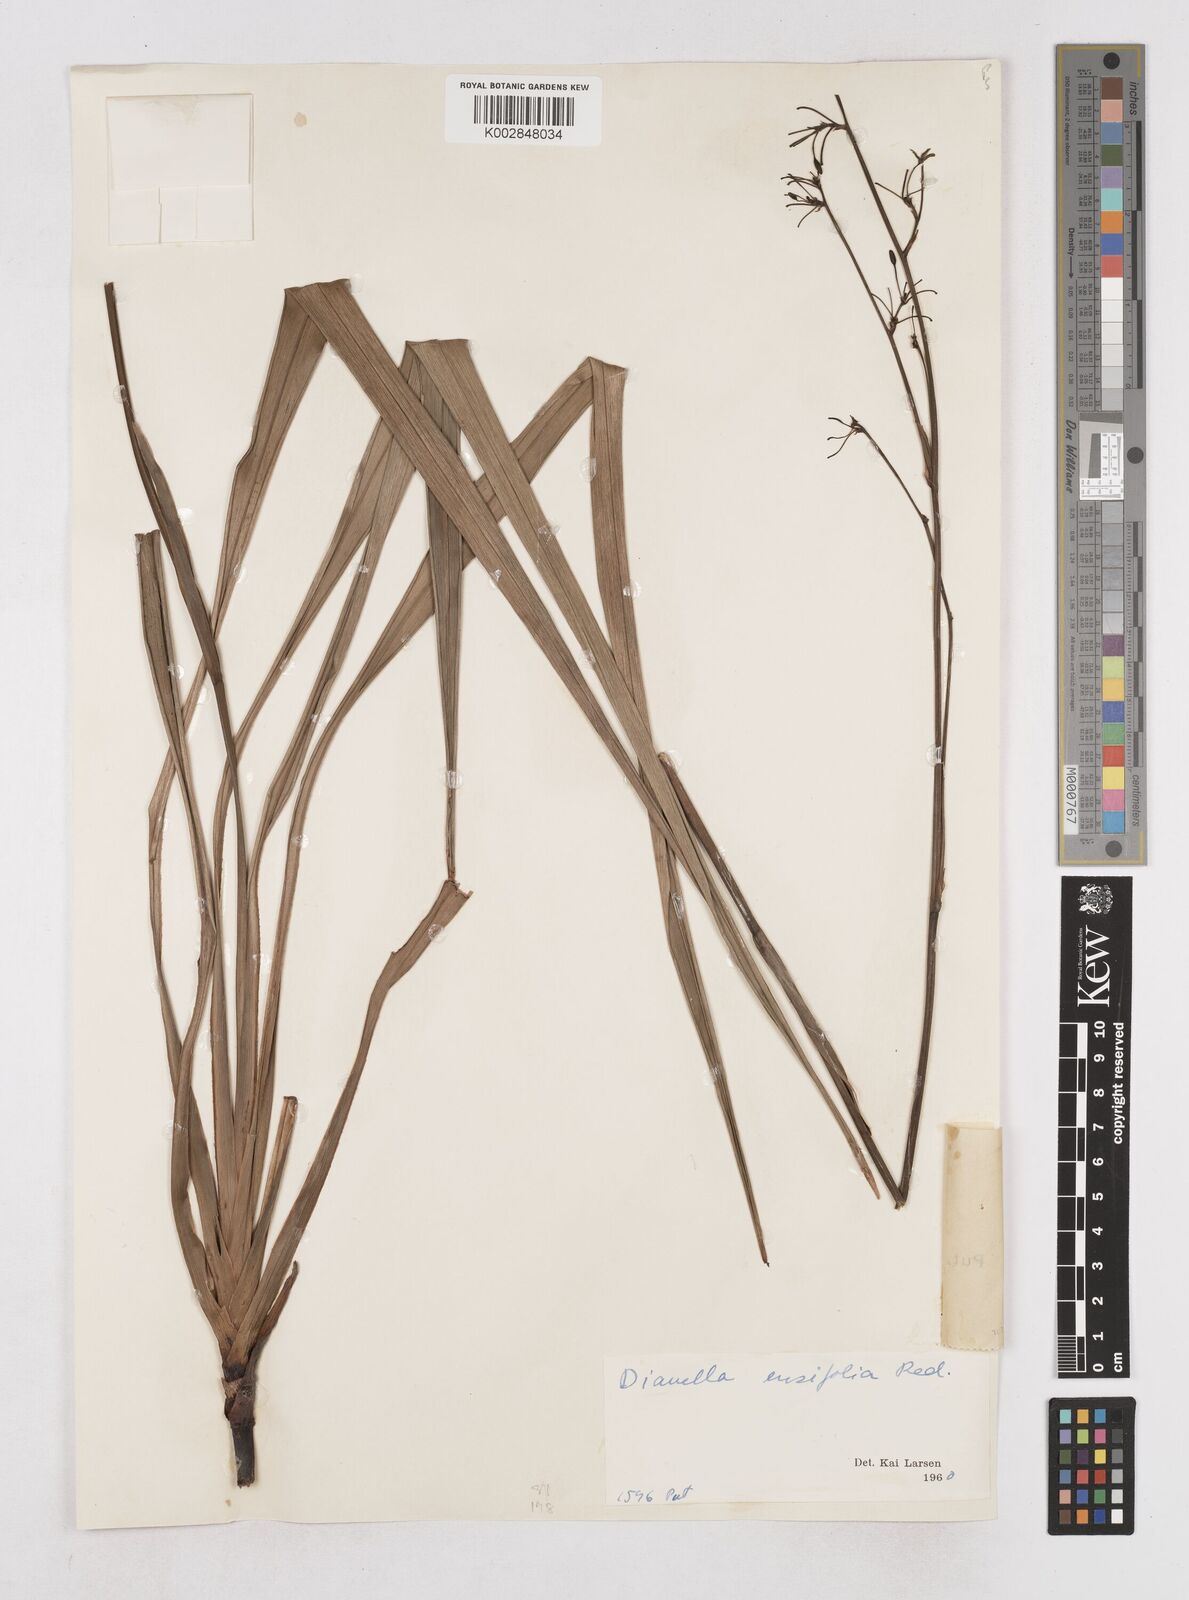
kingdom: Plantae
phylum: Tracheophyta
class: Liliopsida
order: Asparagales
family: Asphodelaceae
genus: Dianella
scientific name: Dianella ensifolia
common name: New zealand lilyplant
